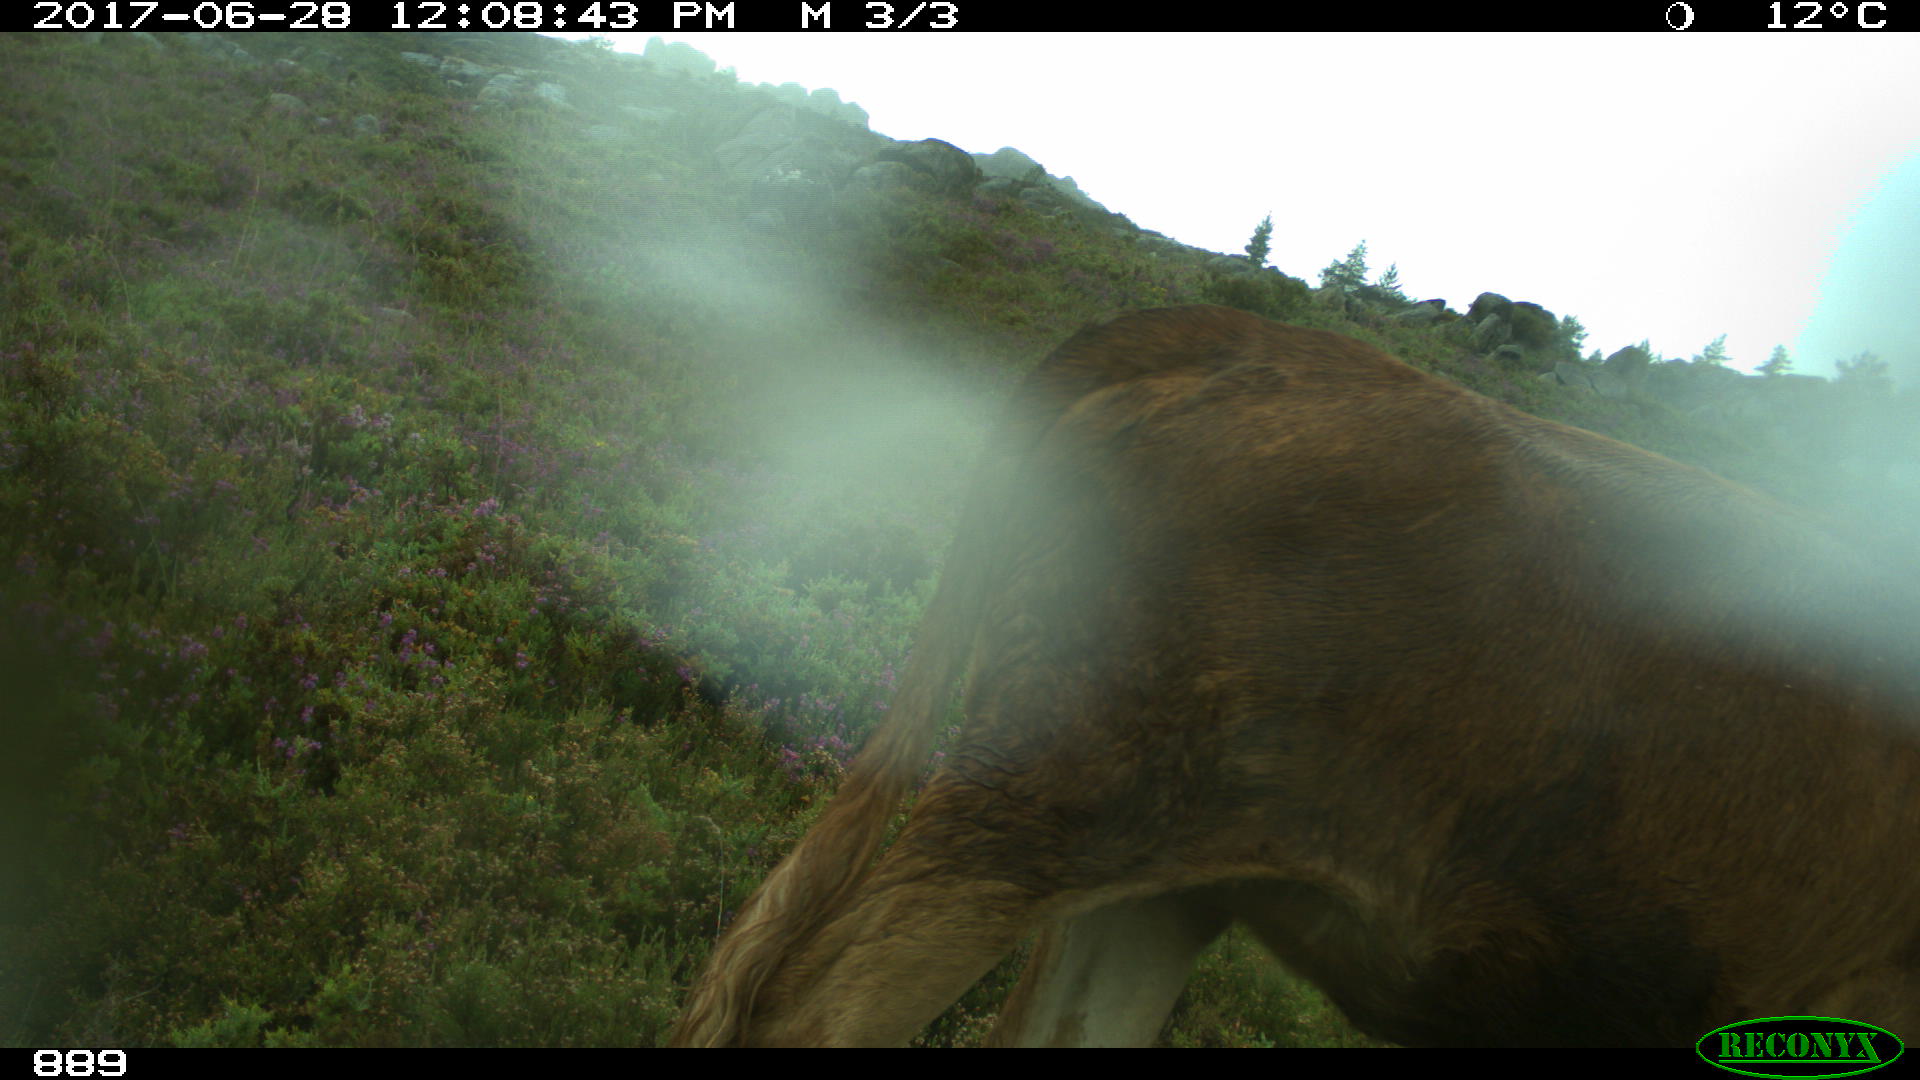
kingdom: Animalia
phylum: Chordata
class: Mammalia
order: Artiodactyla
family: Bovidae
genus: Bos
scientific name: Bos taurus
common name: Domesticated cattle
